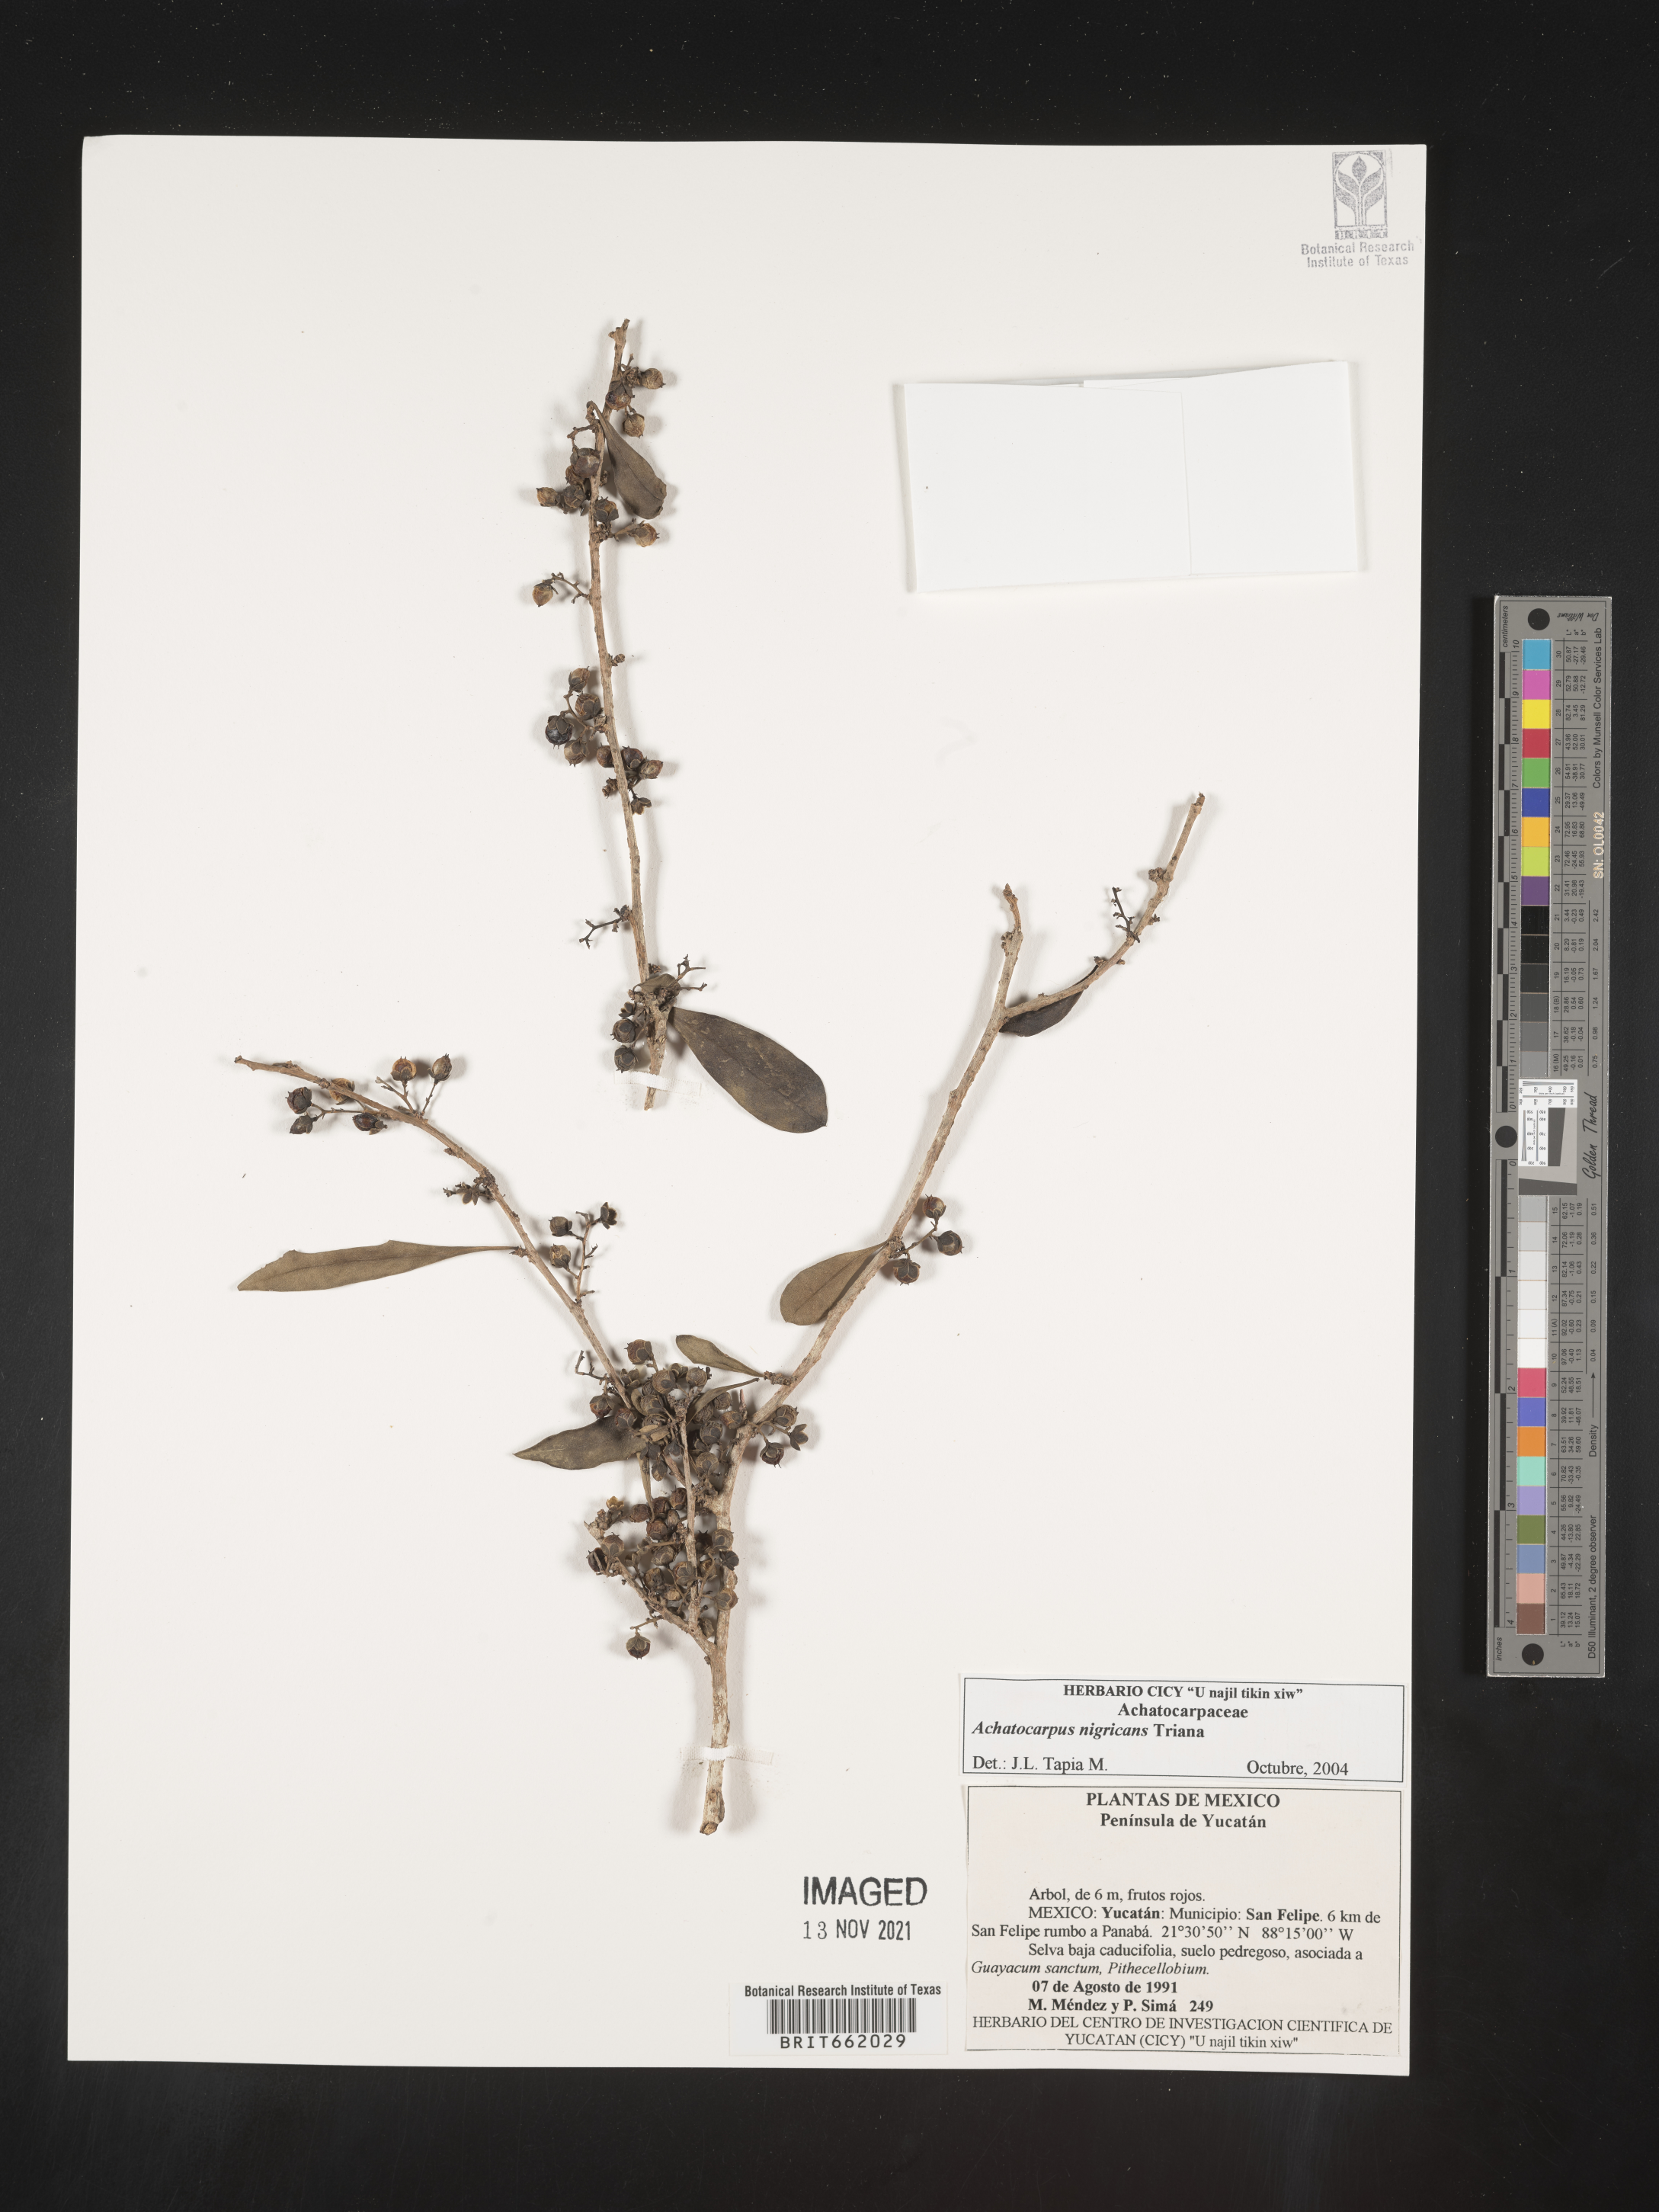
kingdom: Plantae
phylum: Tracheophyta
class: Magnoliopsida
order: Caryophyllales
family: Achatocarpaceae
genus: Achatocarpus
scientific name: Achatocarpus
